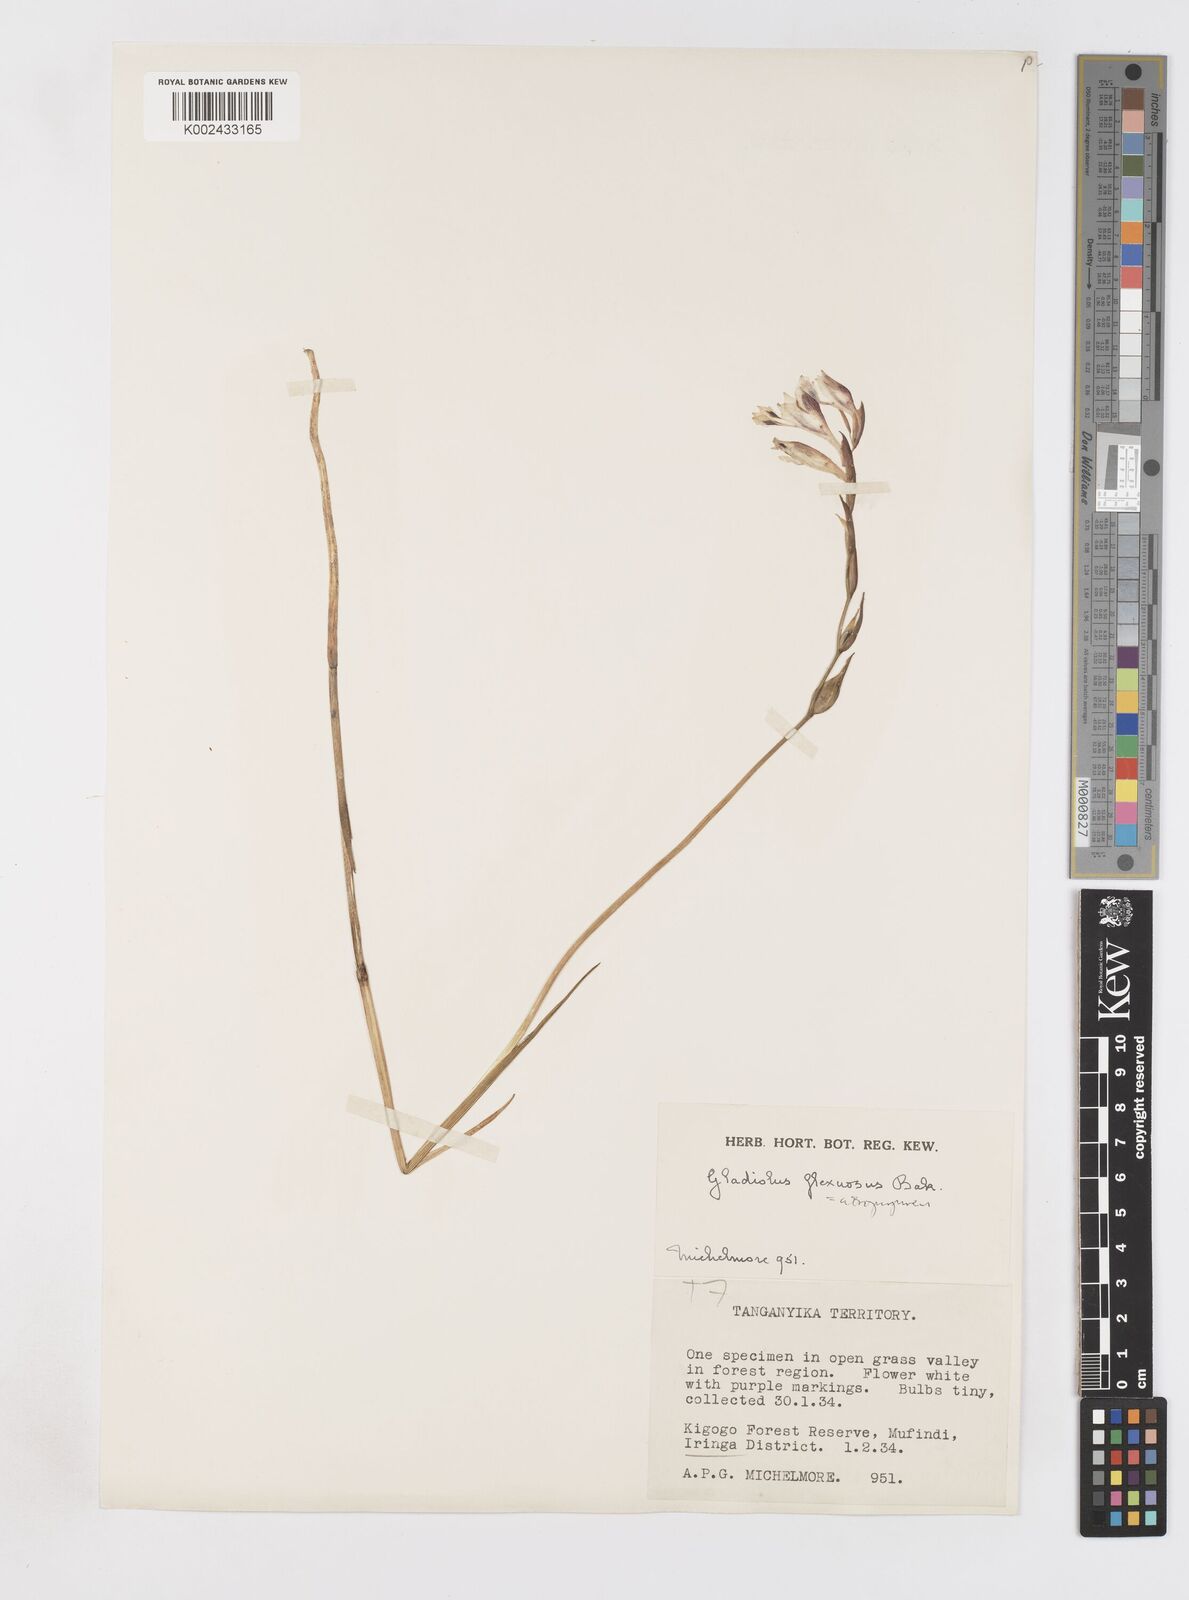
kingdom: Plantae
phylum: Tracheophyta
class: Liliopsida
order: Asparagales
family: Iridaceae
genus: Gladiolus
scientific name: Gladiolus atropurpureus
